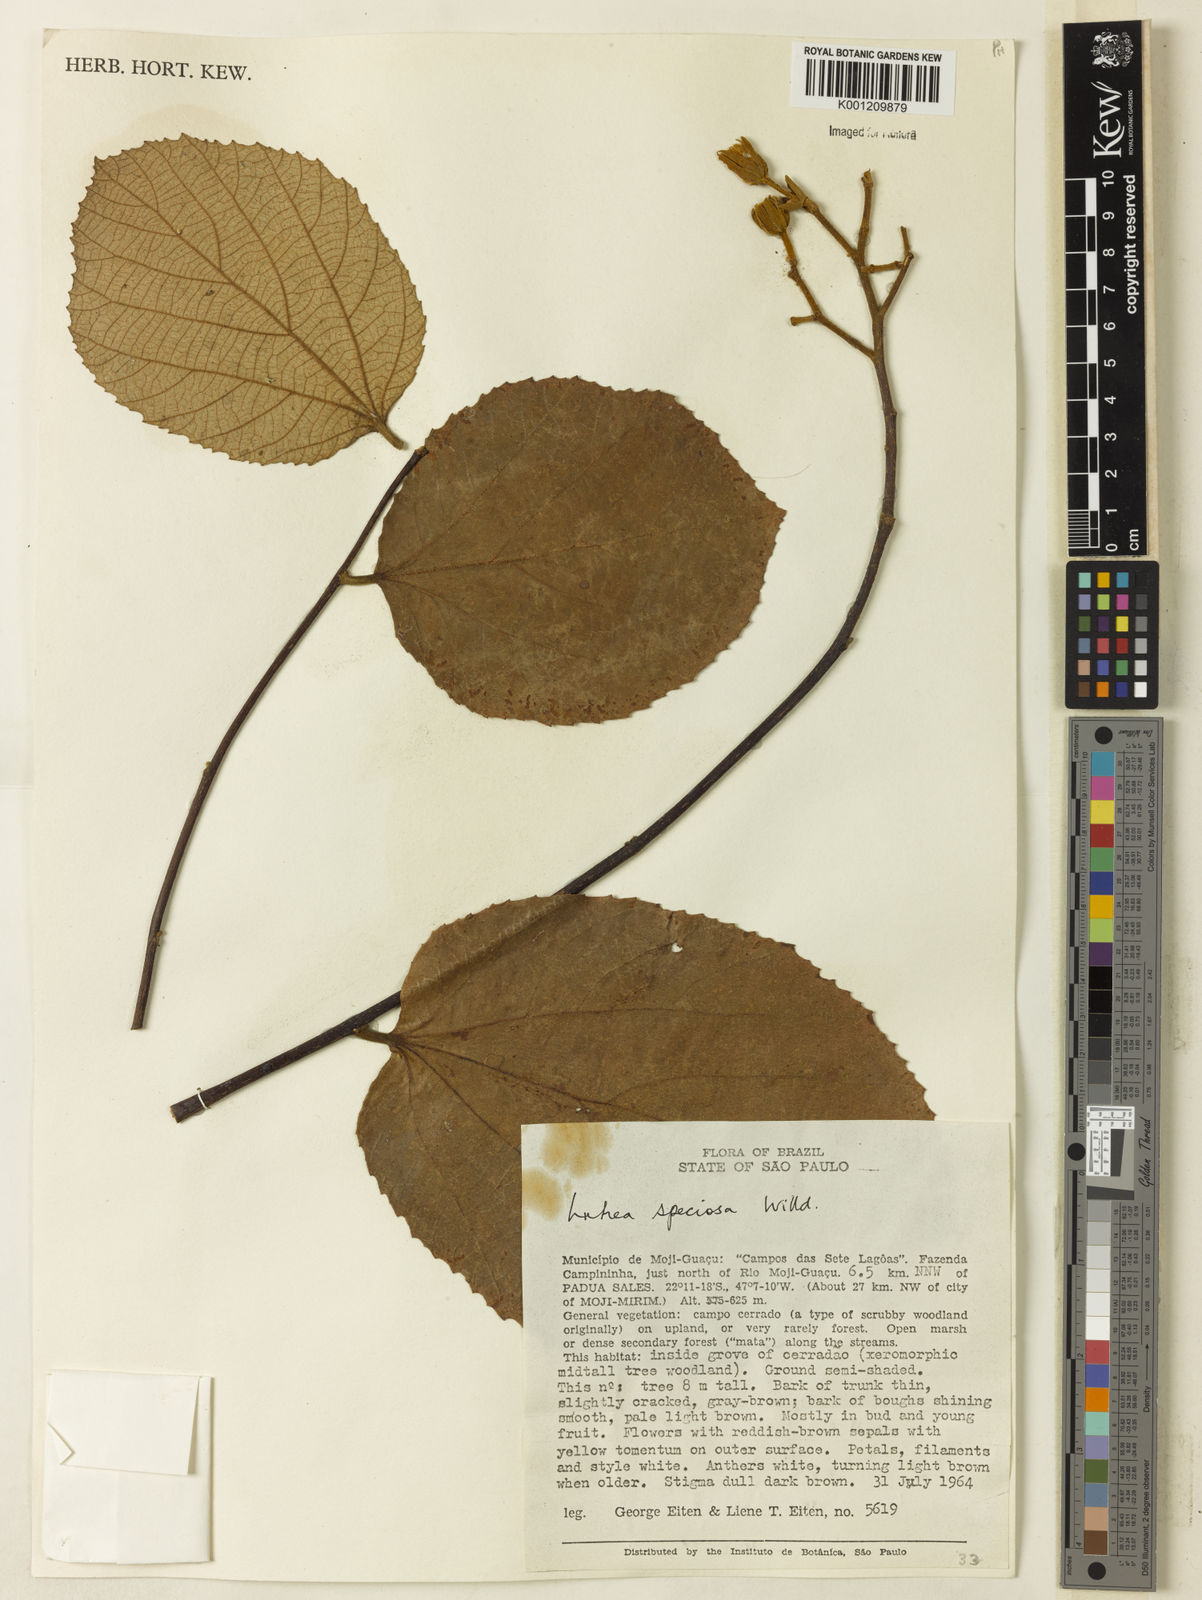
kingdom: Plantae
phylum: Tracheophyta
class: Magnoliopsida
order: Malvales
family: Malvaceae
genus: Luehea
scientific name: Luehea speciosa
